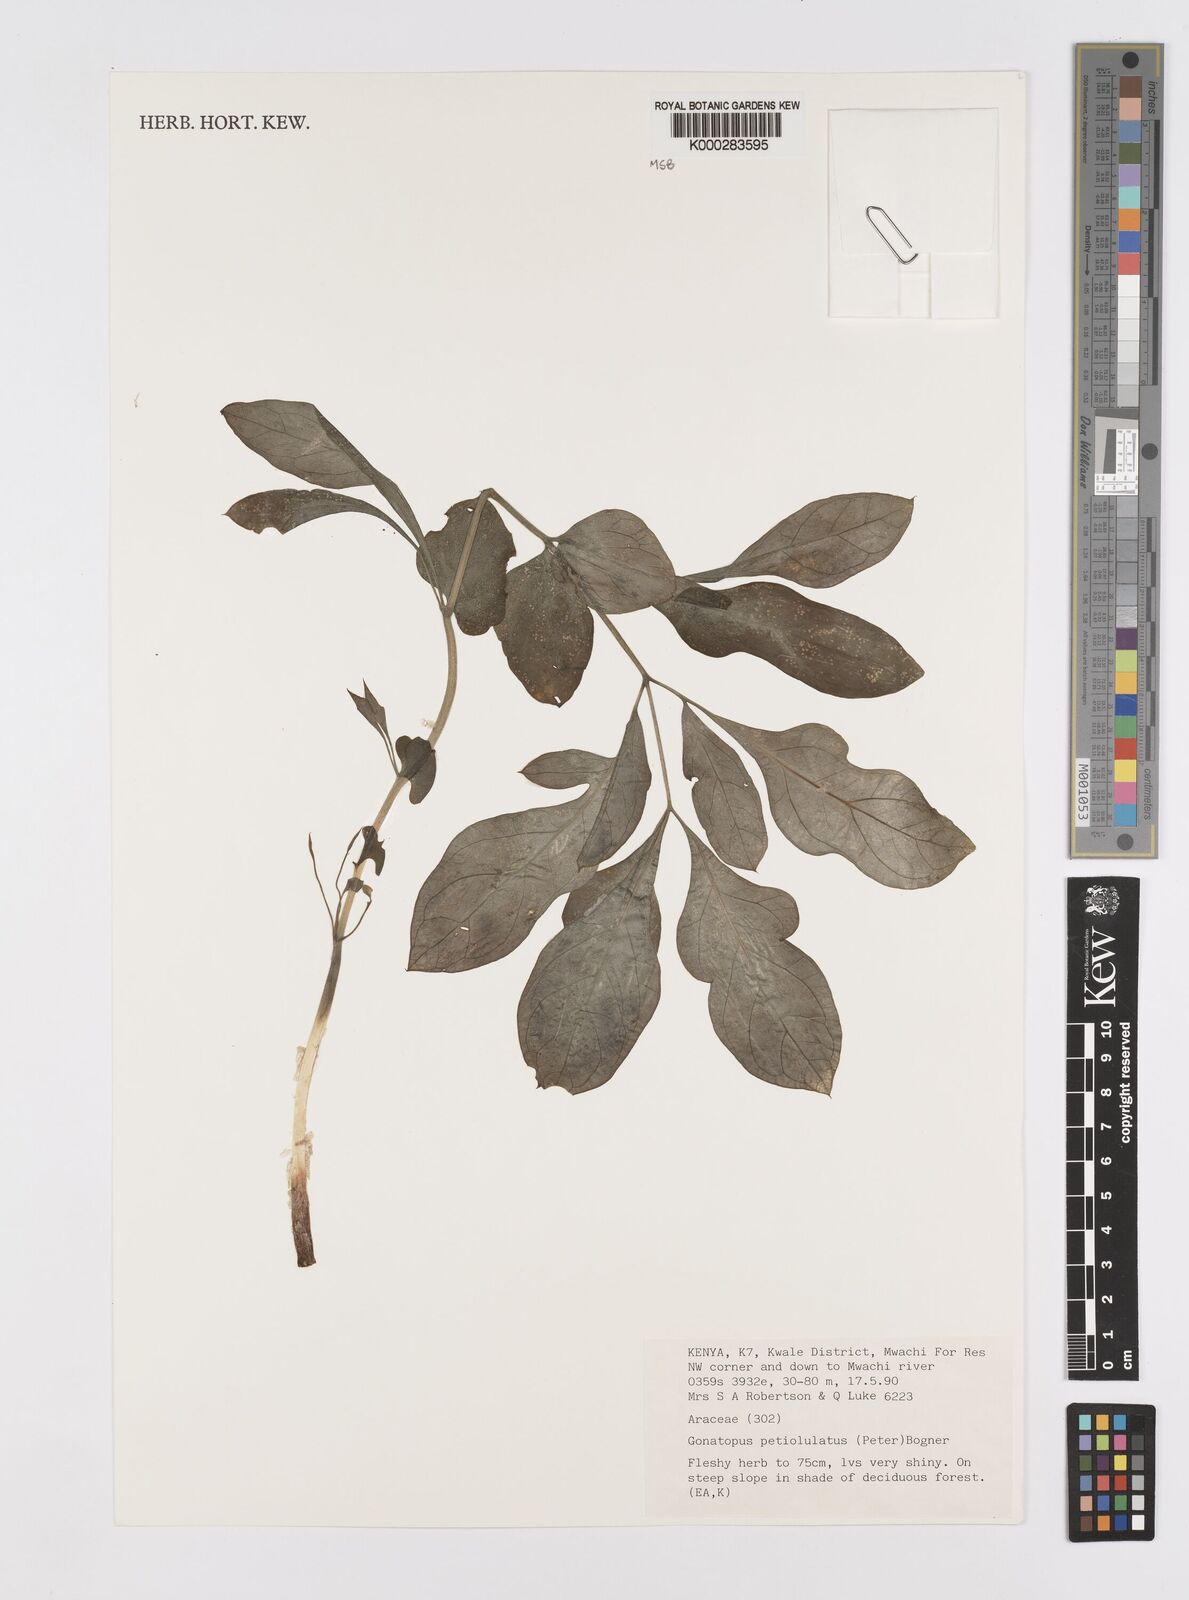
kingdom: Plantae
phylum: Tracheophyta
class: Liliopsida
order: Alismatales
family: Araceae
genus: Gonatopus
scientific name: Gonatopus petiolulatus
